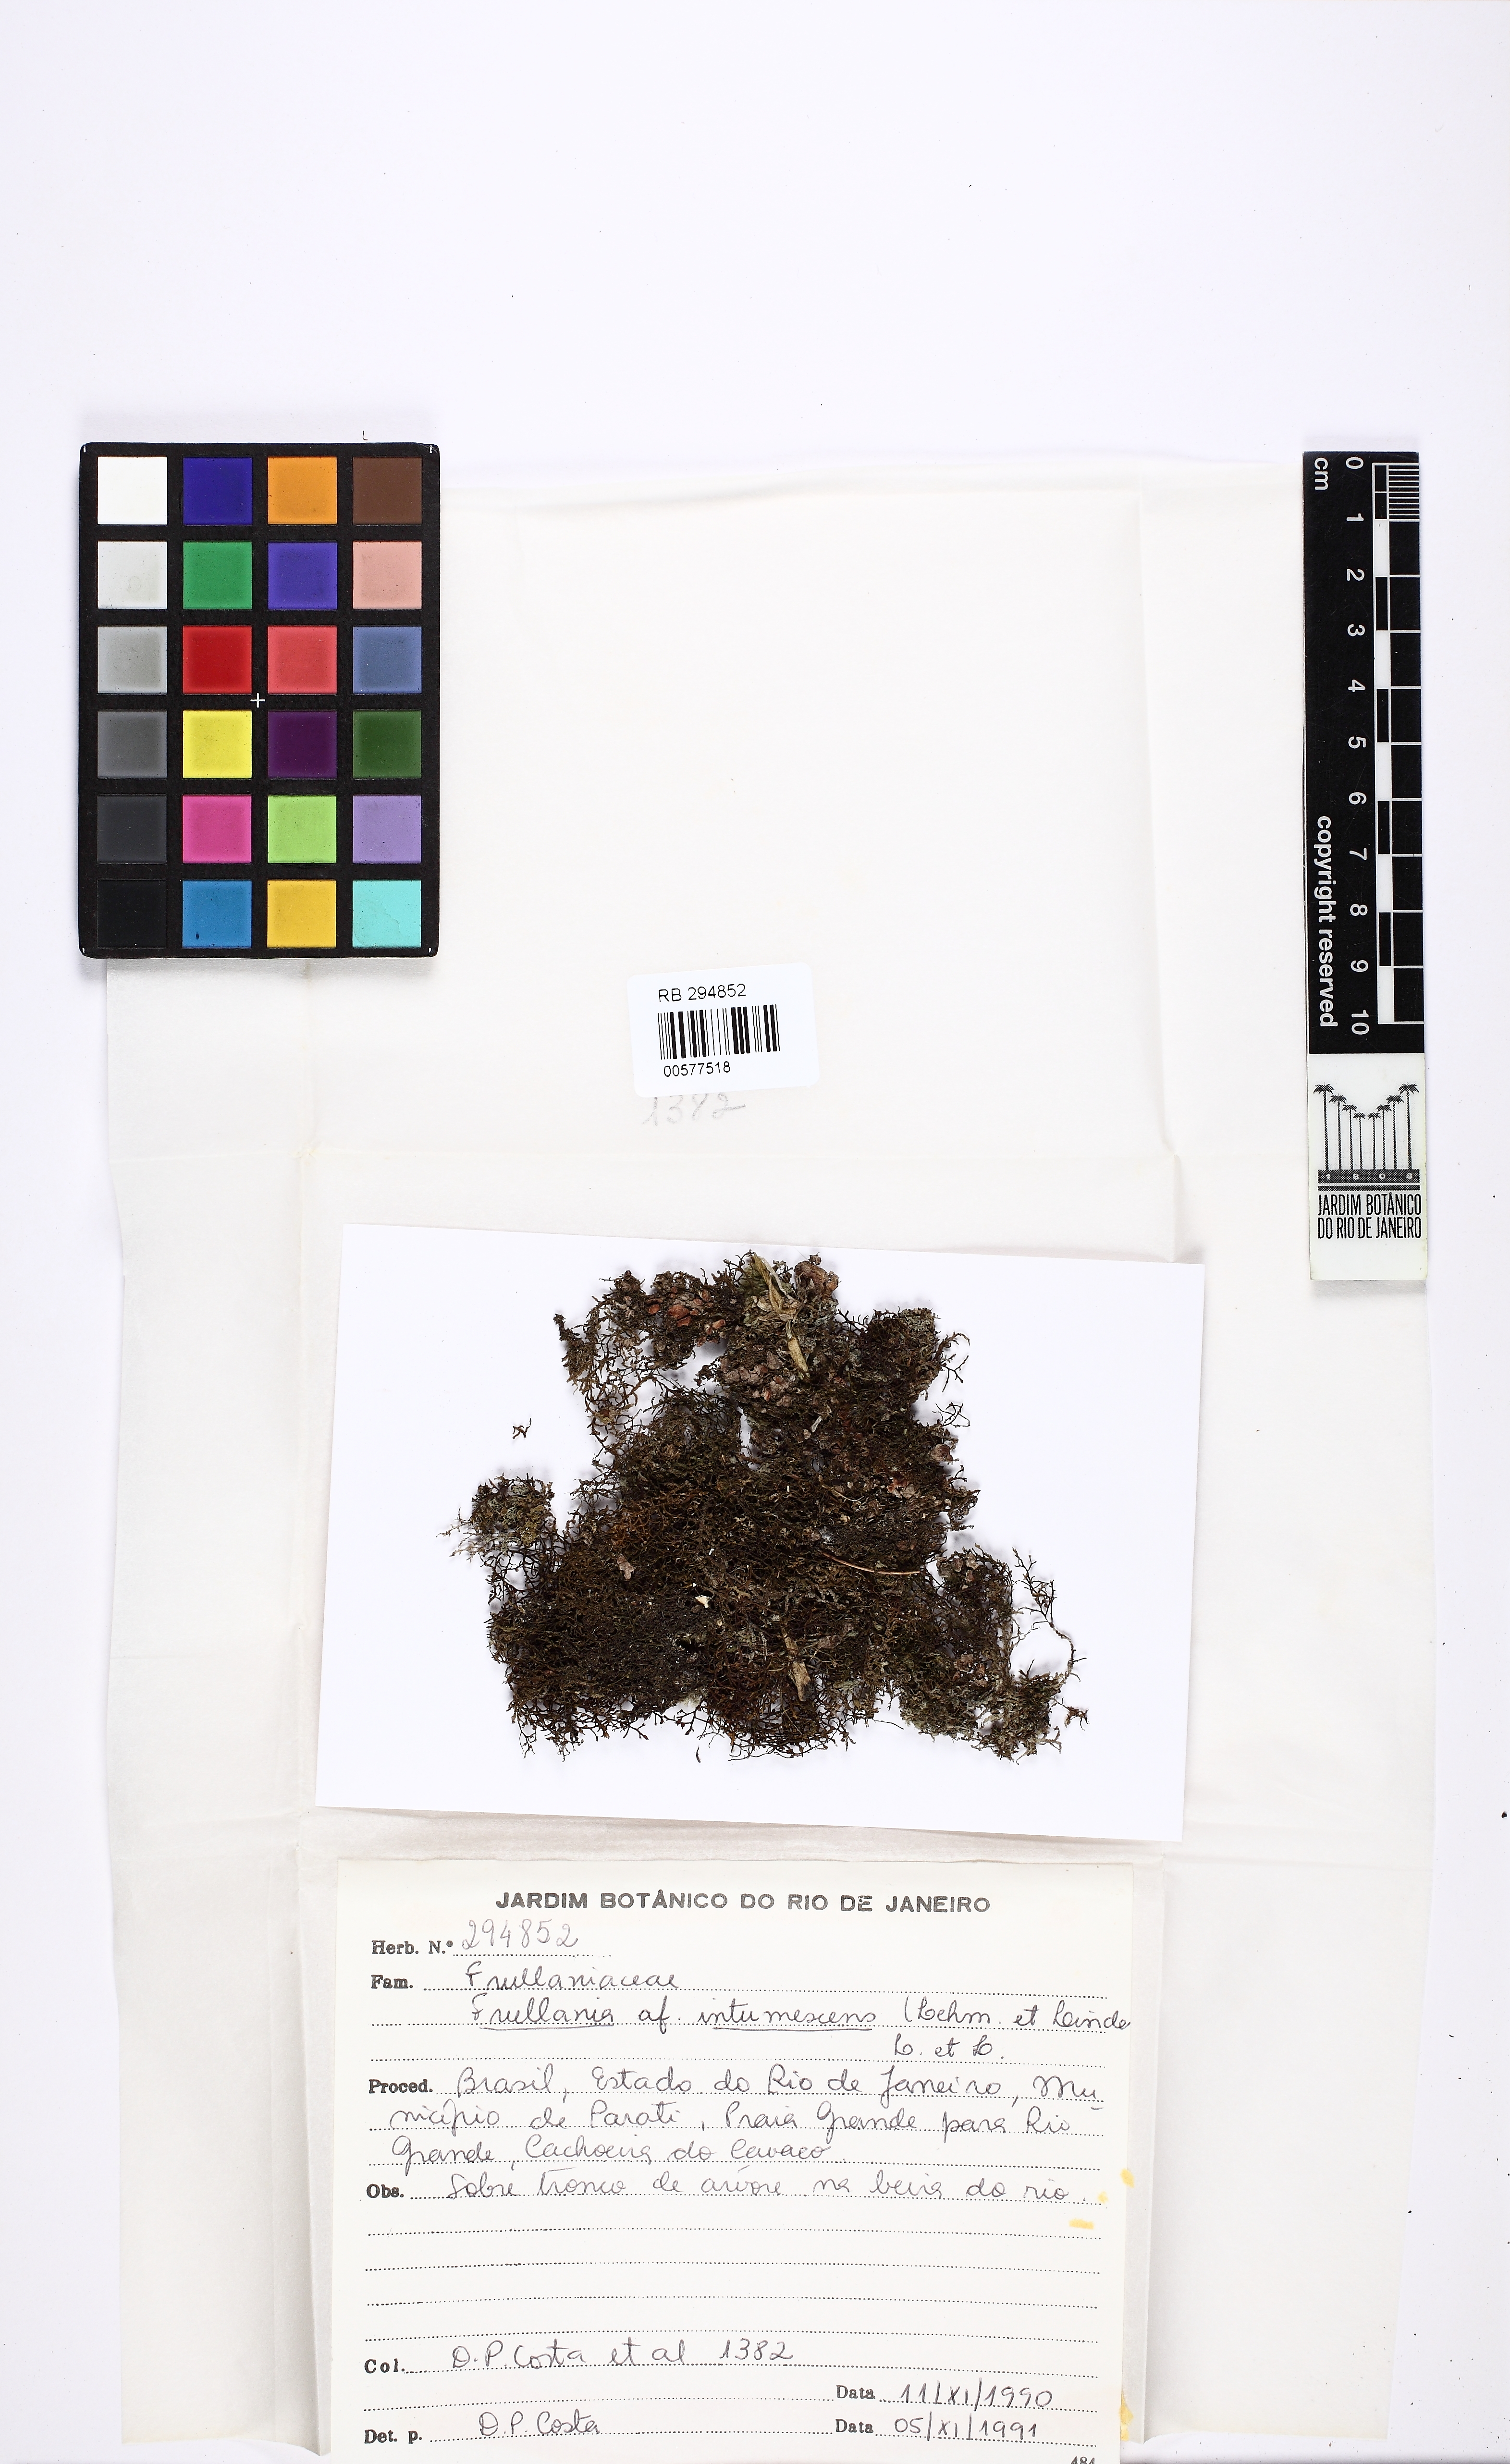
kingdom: Plantae
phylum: Marchantiophyta
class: Jungermanniopsida
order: Porellales
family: Frullaniaceae
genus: Frullania
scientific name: Frullania intumescens
